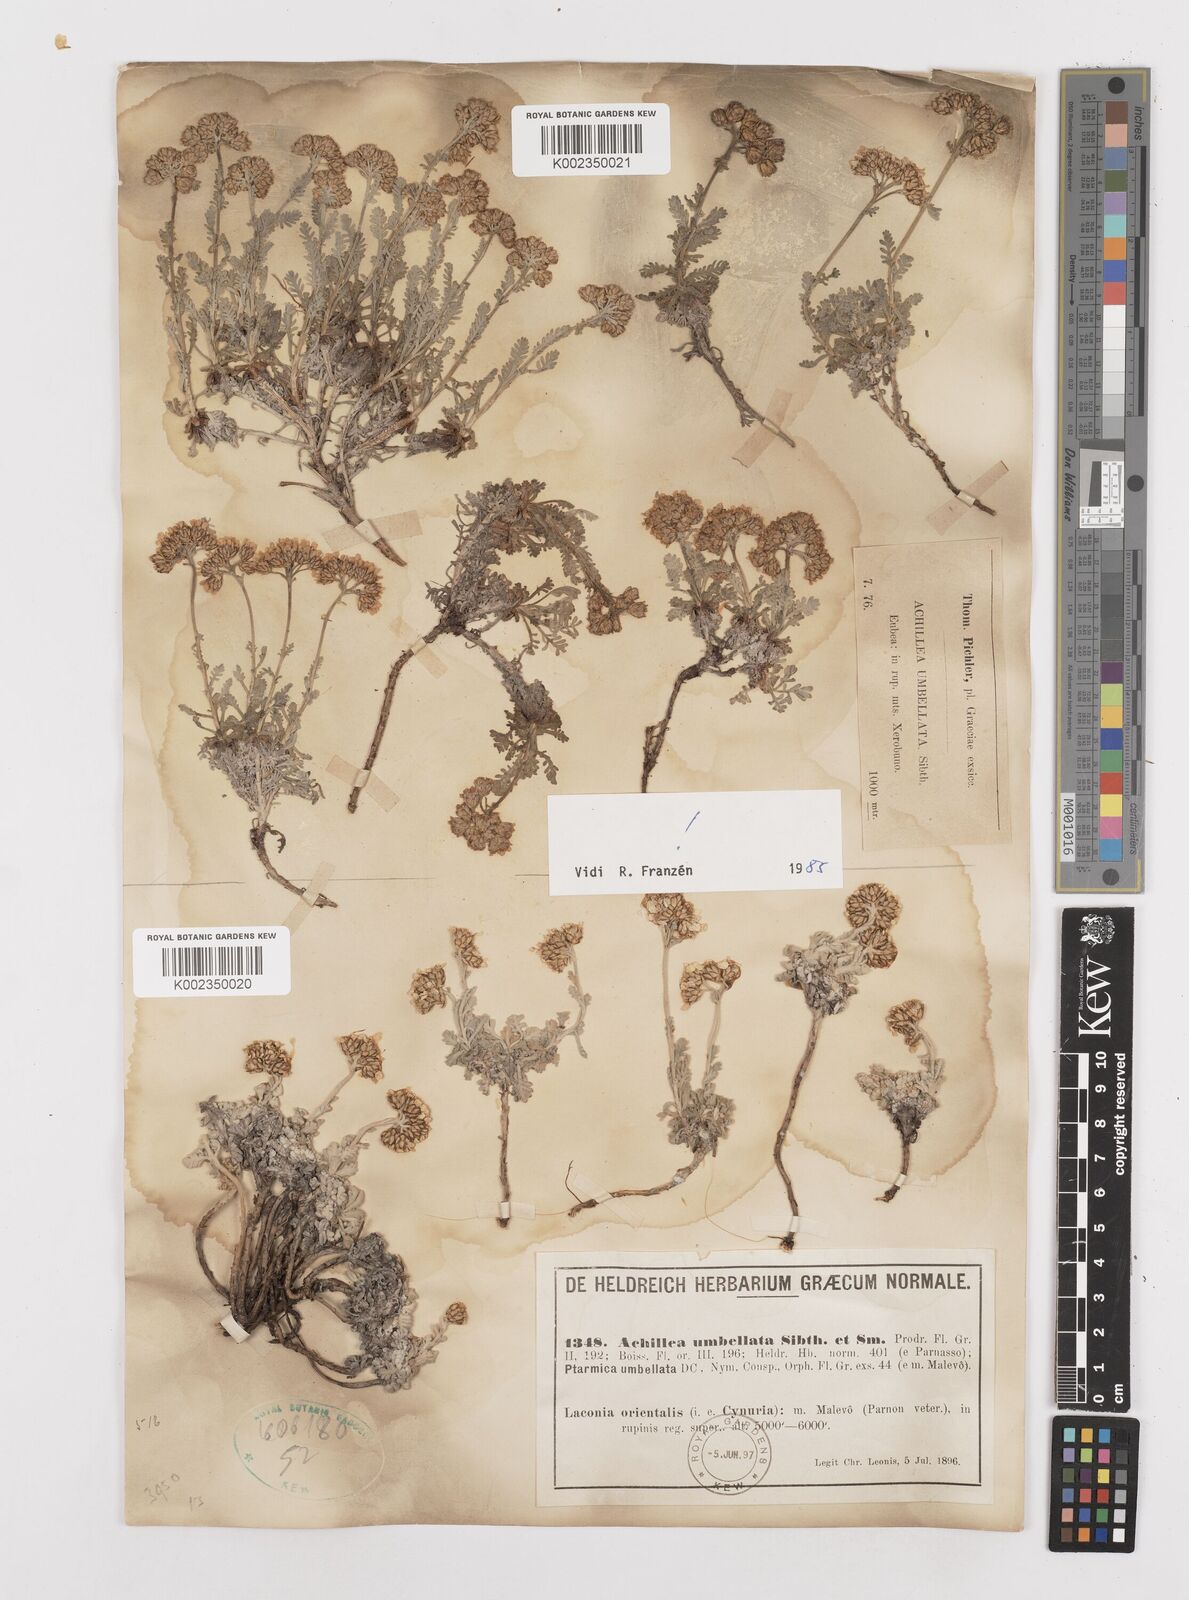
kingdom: Plantae
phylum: Tracheophyta
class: Magnoliopsida
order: Asterales
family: Asteraceae
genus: Achillea
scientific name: Achillea umbellata
